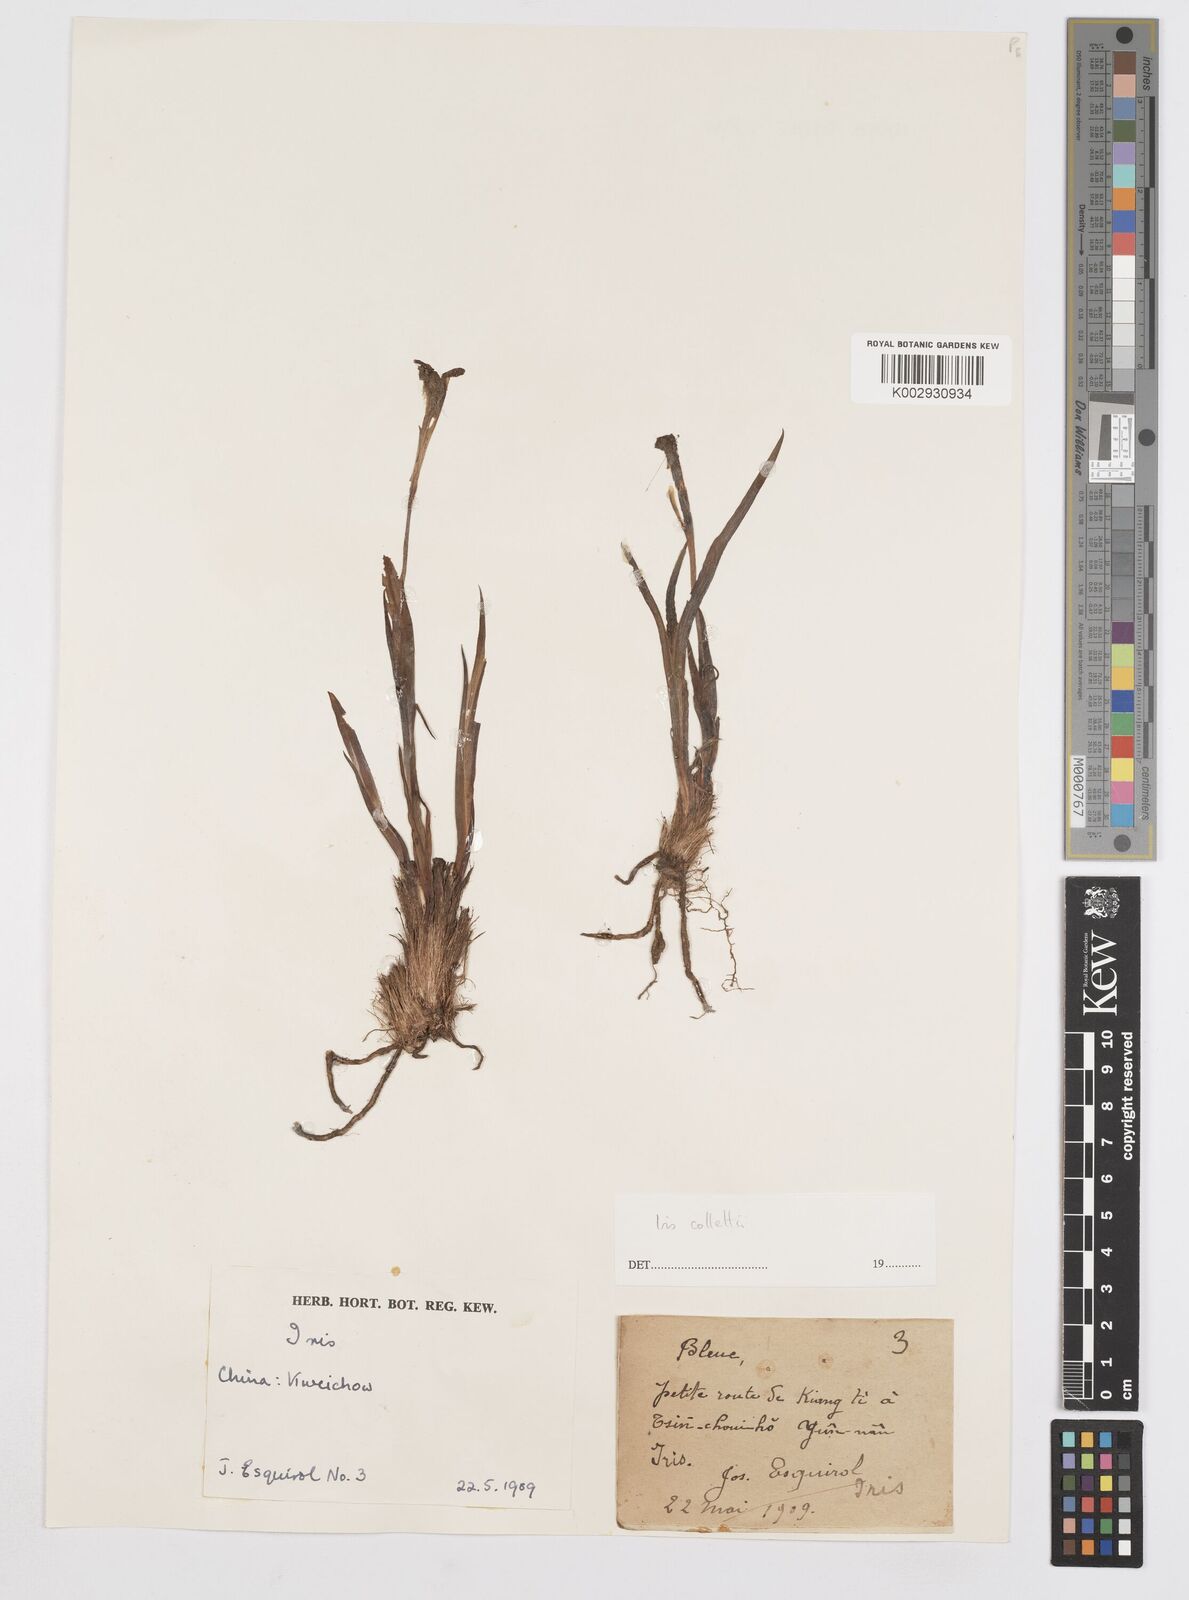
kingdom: Plantae
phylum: Tracheophyta
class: Liliopsida
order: Asparagales
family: Iridaceae
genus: Iris
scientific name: Iris collettii
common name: Plateau iris
